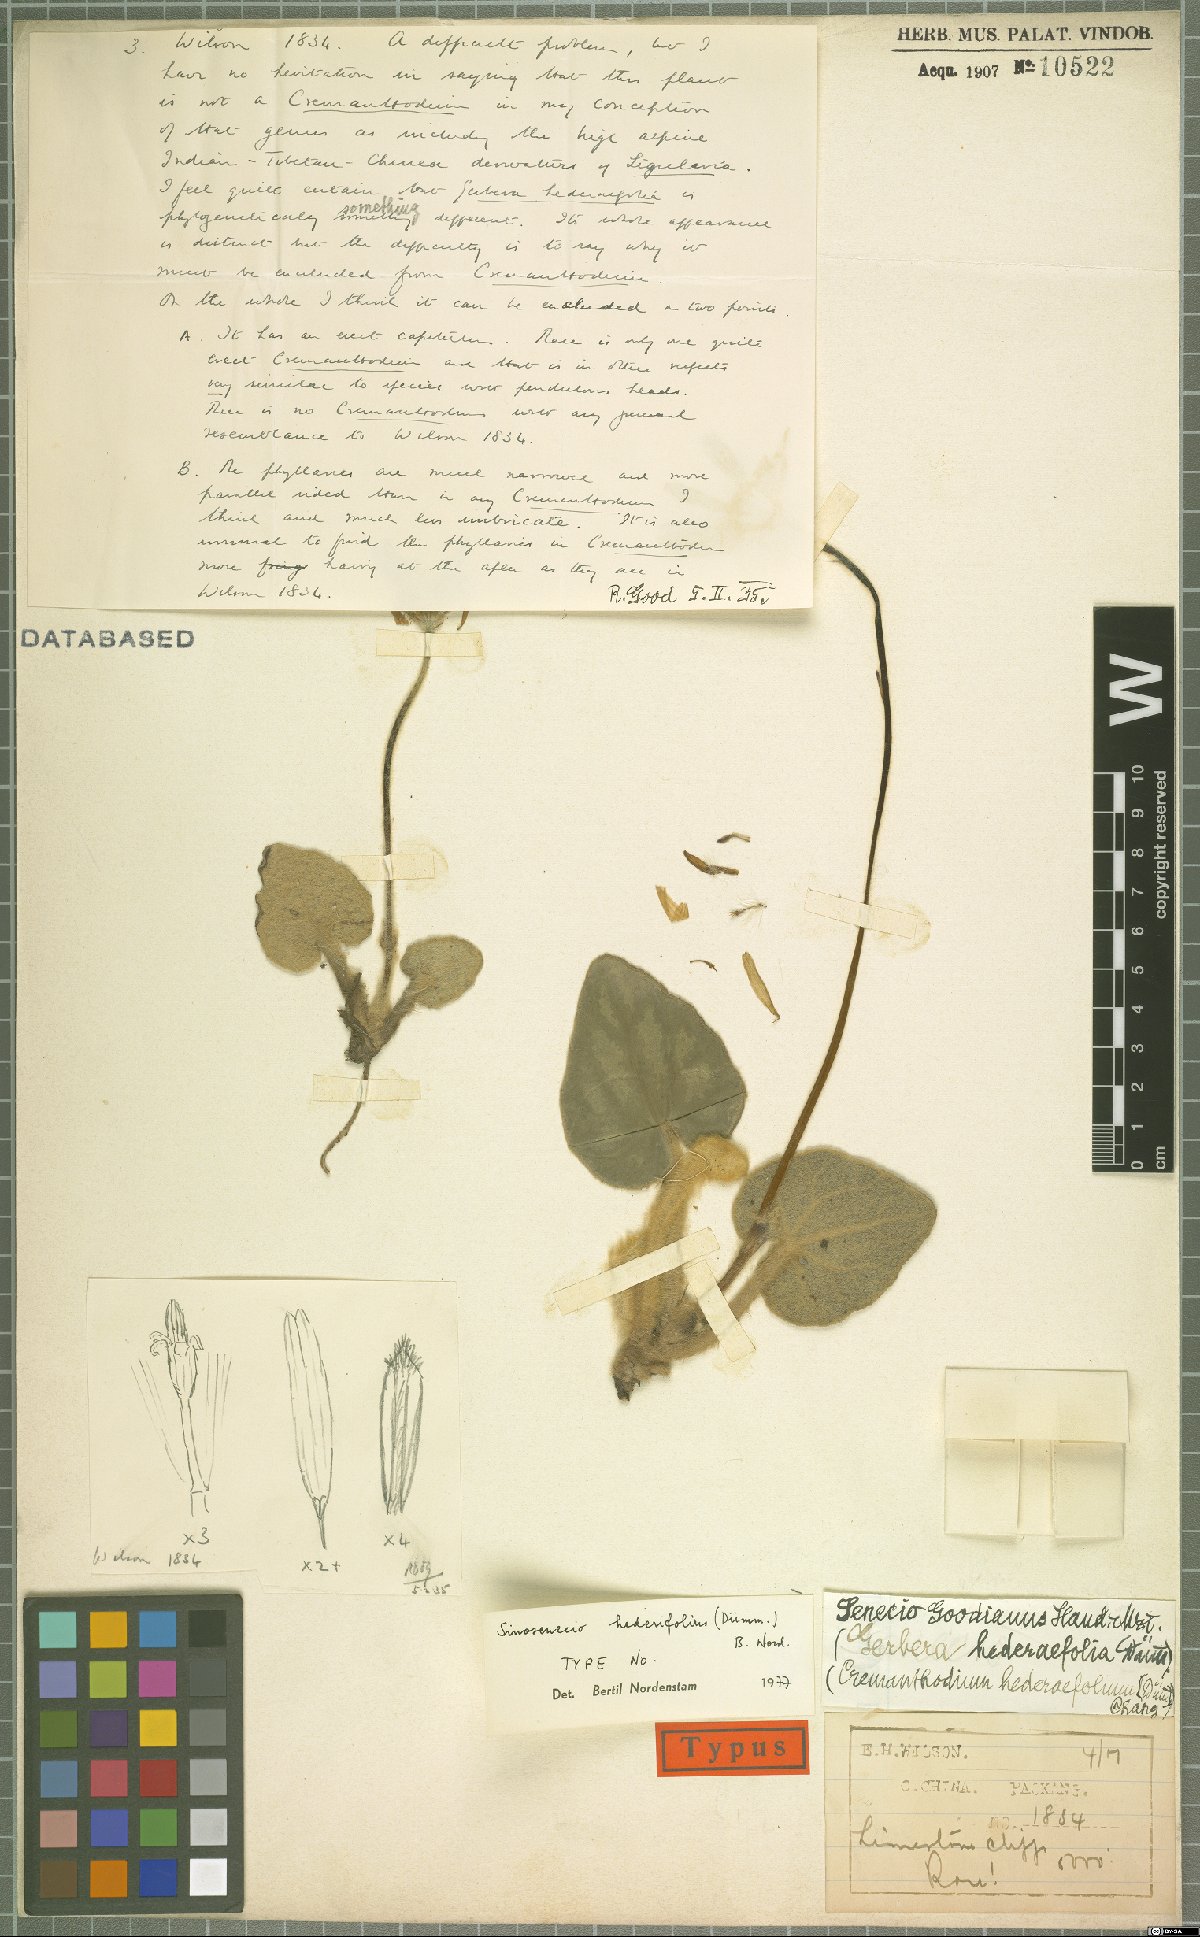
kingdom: Plantae
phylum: Tracheophyta
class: Magnoliopsida
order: Asterales
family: Asteraceae
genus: Sinosenecio
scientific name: Sinosenecio hederifolius
